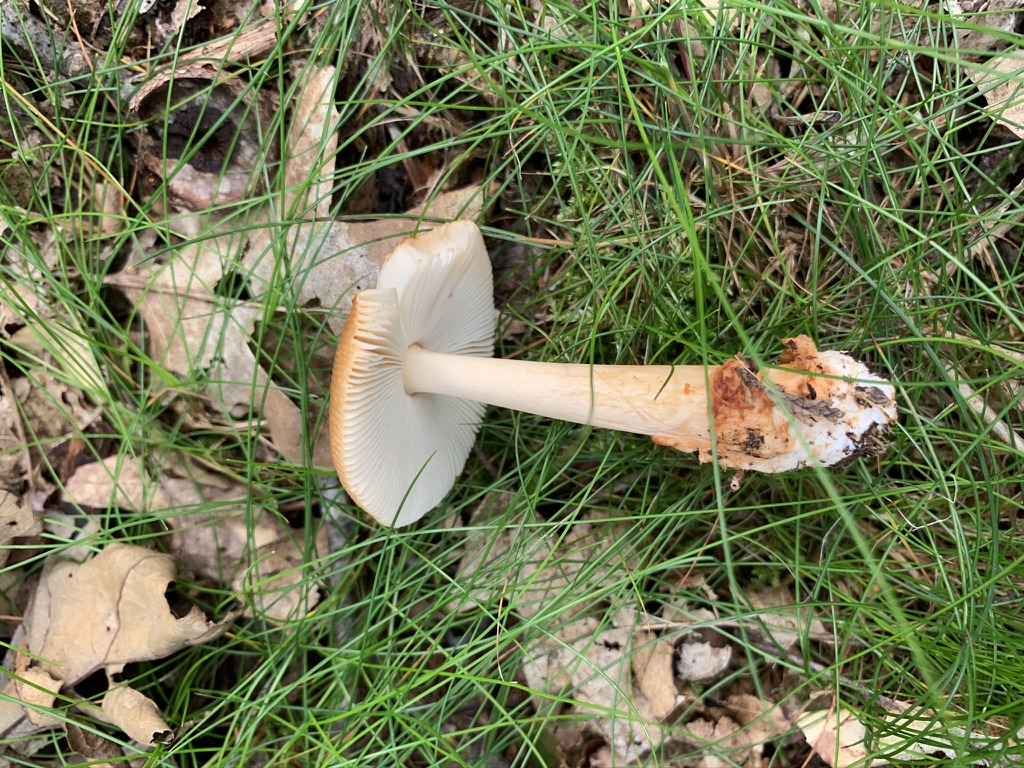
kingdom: Fungi
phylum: Basidiomycota
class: Agaricomycetes
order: Agaricales
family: Amanitaceae
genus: Amanita
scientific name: Amanita fulva
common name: brun kam-fluesvamp
